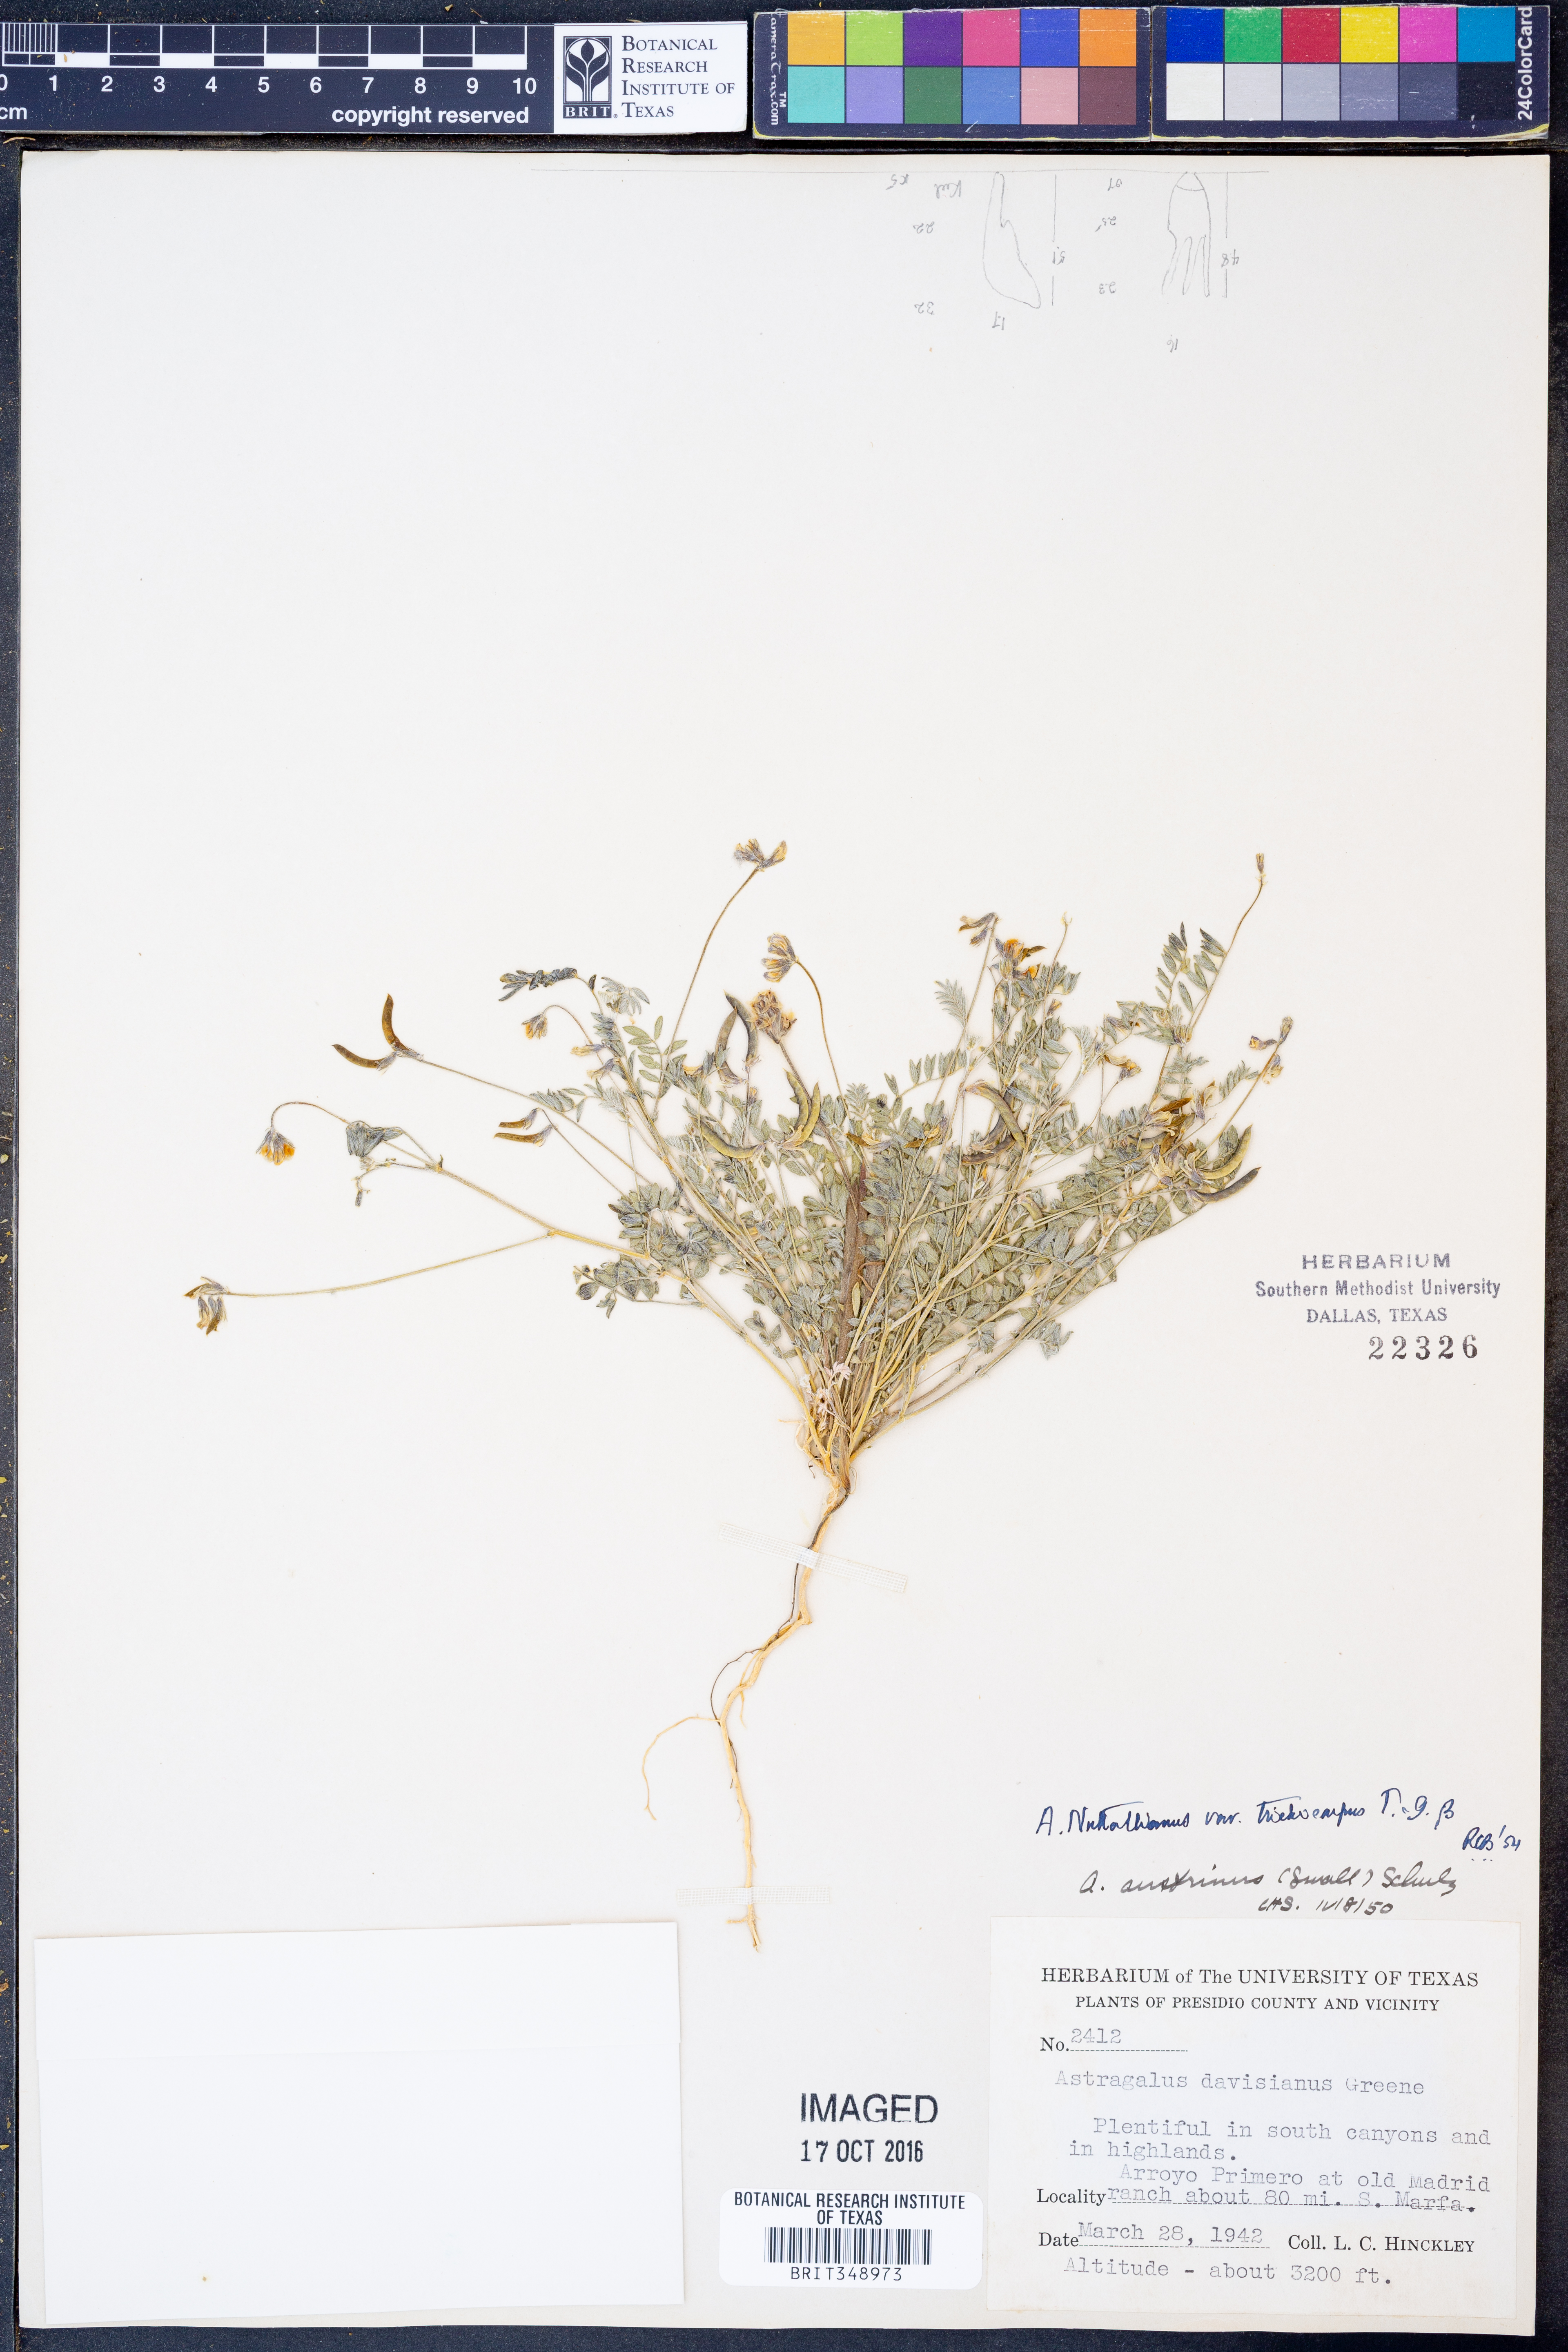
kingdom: Plantae
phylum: Tracheophyta
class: Magnoliopsida
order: Fabales
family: Fabaceae
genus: Astragalus
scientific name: Astragalus nuttallianus
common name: Smallflowered milkvetch
